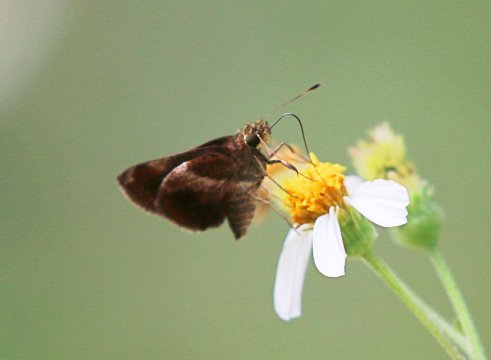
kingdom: Animalia
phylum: Arthropoda
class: Insecta
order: Lepidoptera
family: Hesperiidae
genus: Moeris
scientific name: Moeris
